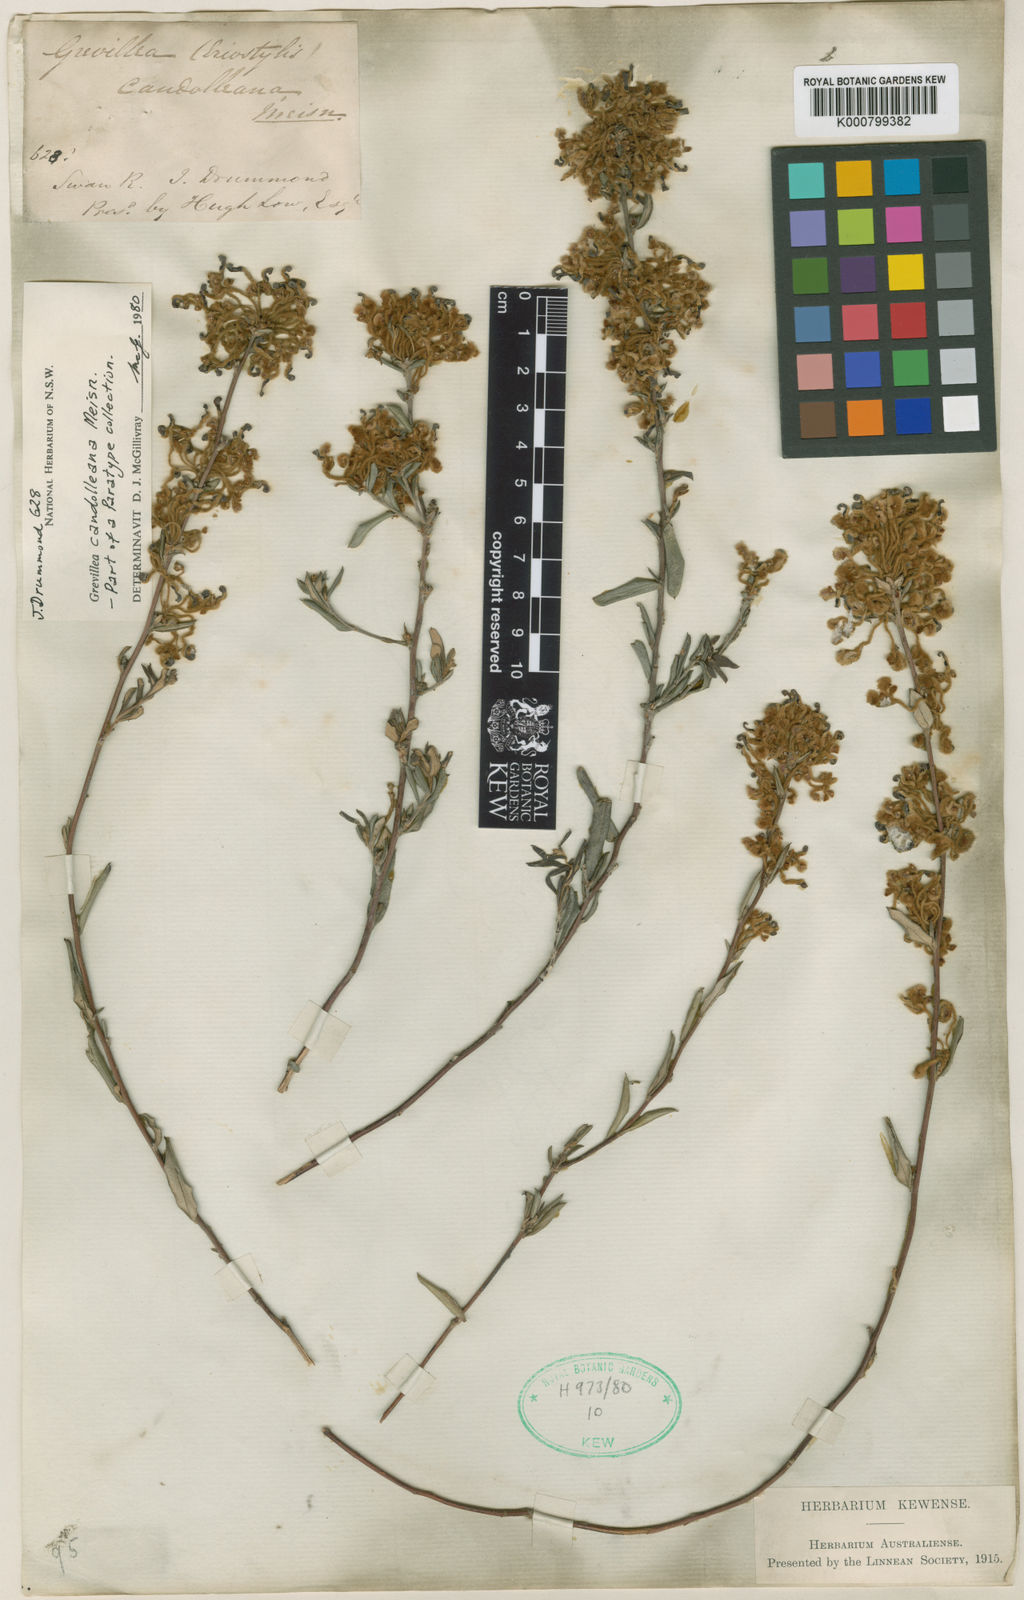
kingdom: Plantae
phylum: Tracheophyta
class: Magnoliopsida
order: Proteales
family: Proteaceae
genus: Grevillea
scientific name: Grevillea candolleana
